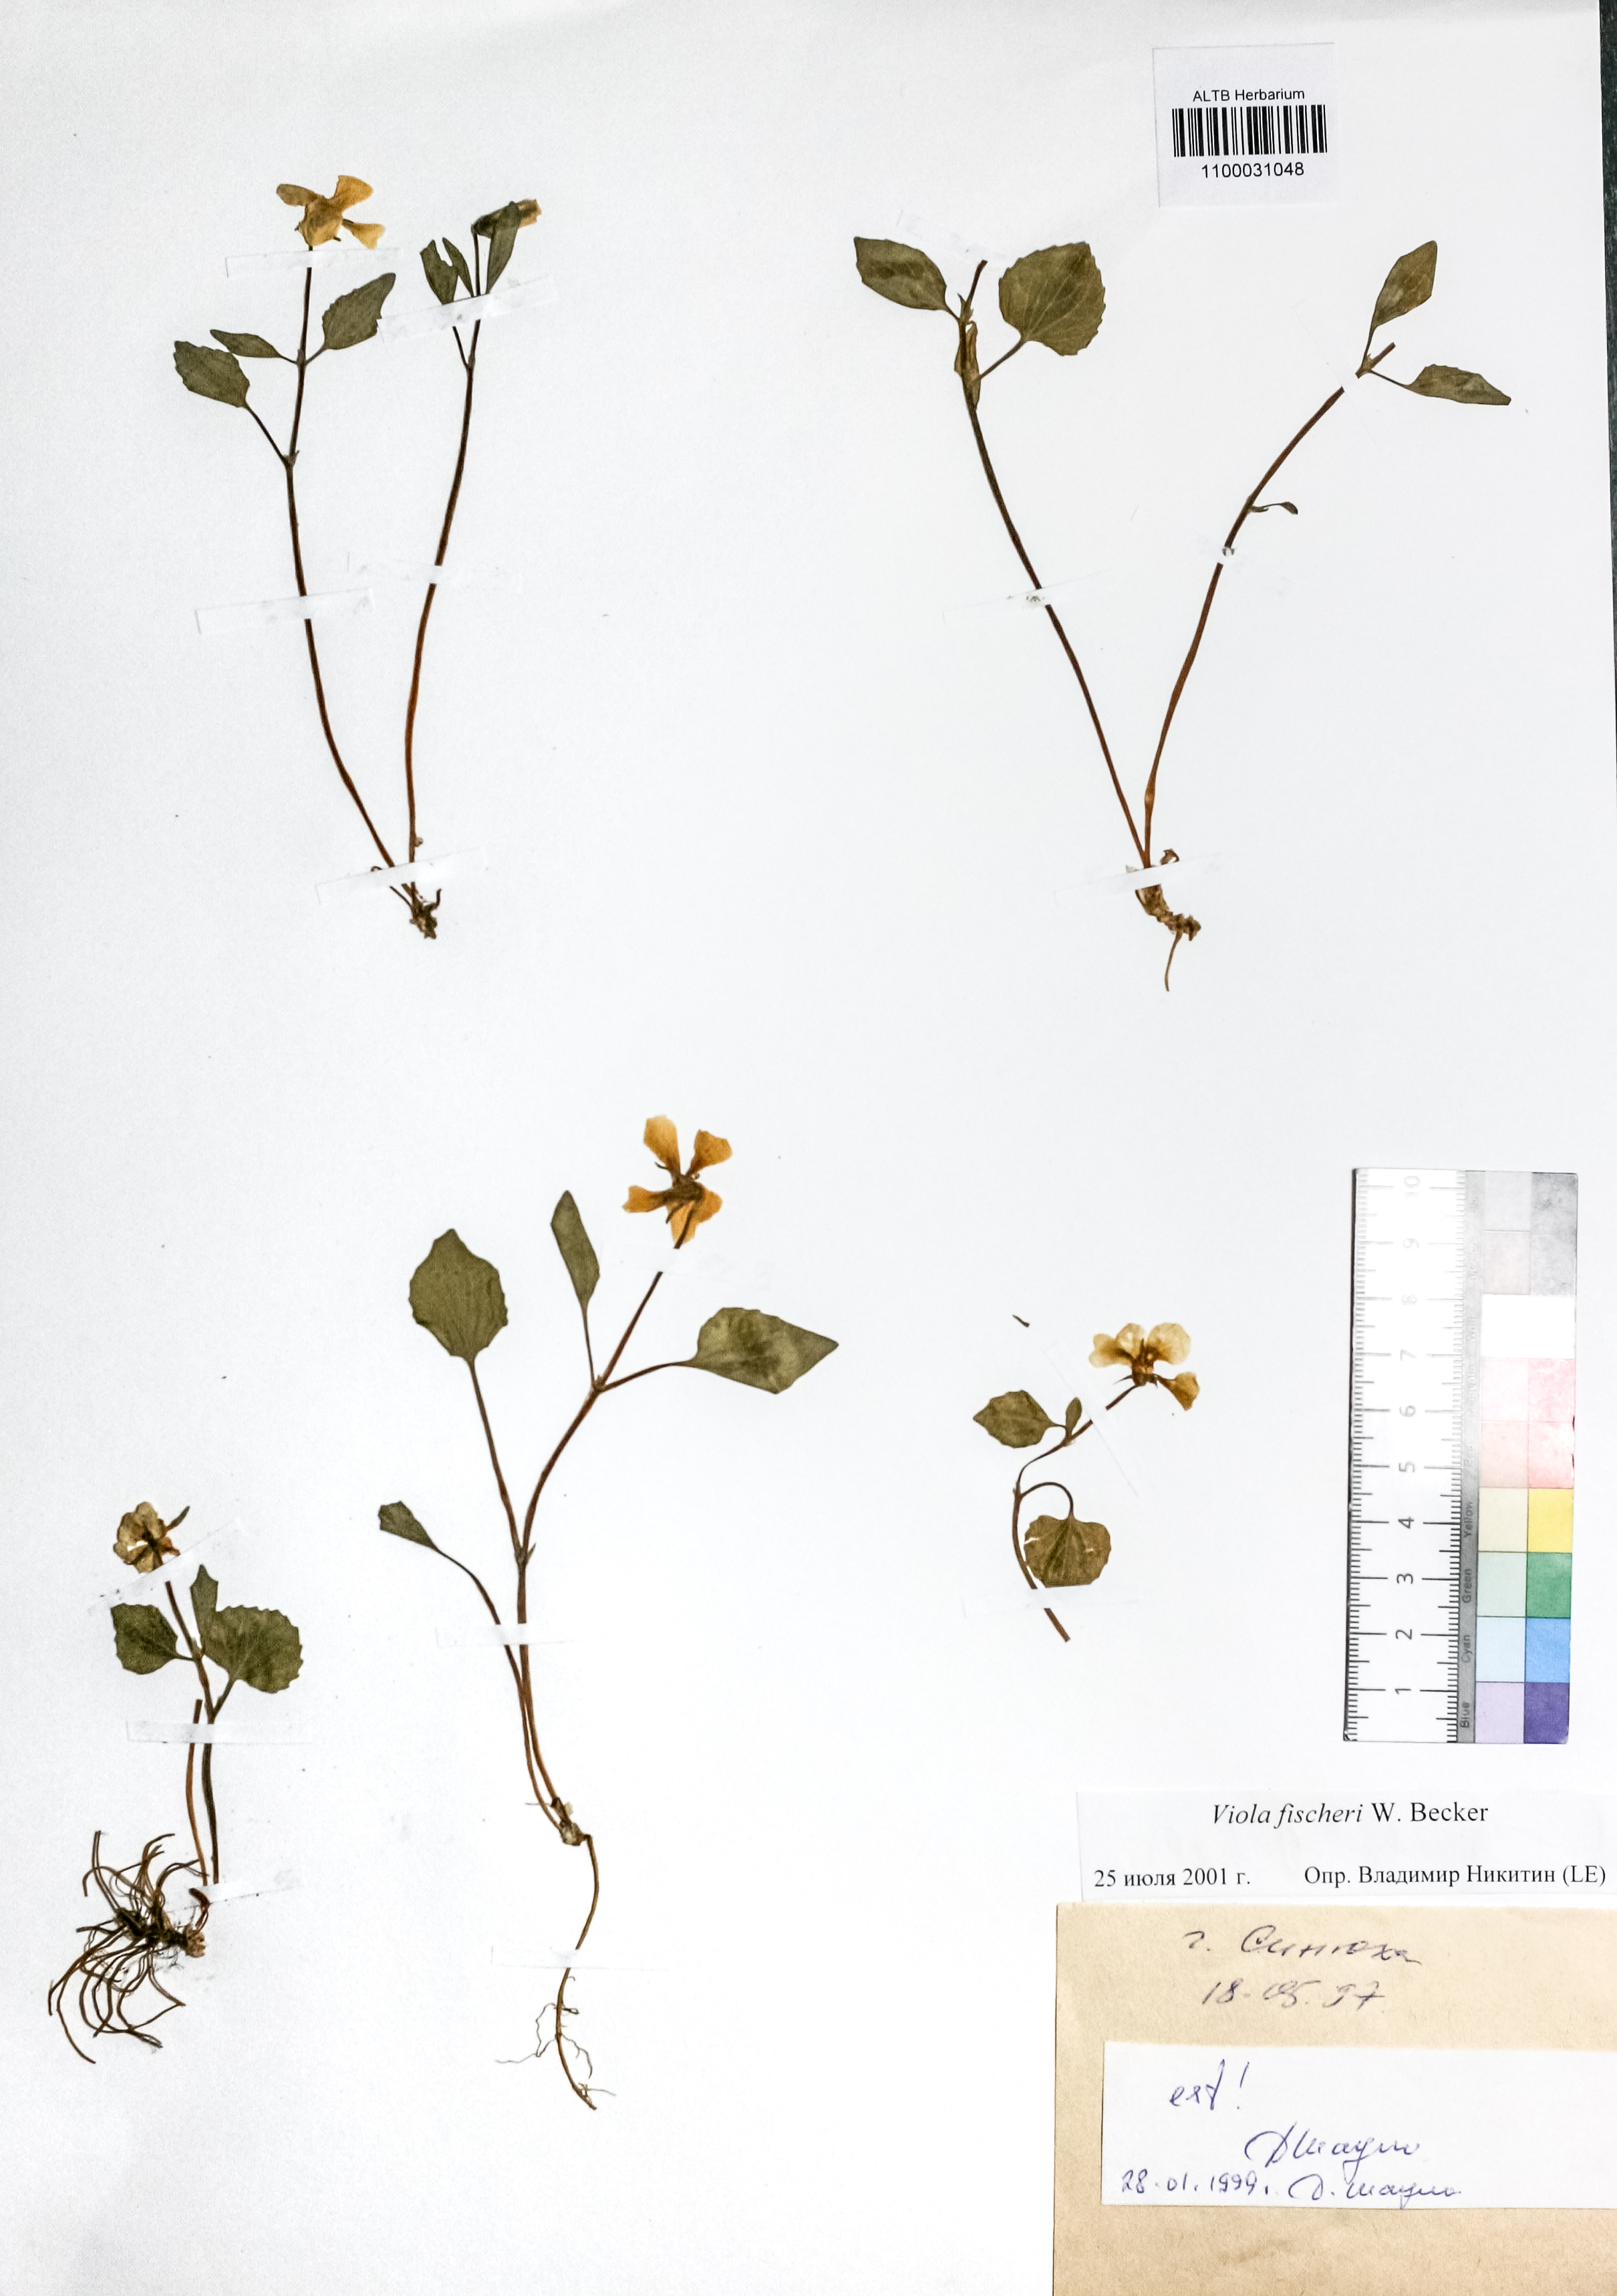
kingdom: Plantae
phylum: Tracheophyta
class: Magnoliopsida
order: Malpighiales
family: Violaceae
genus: Viola
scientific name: Viola fischeri
